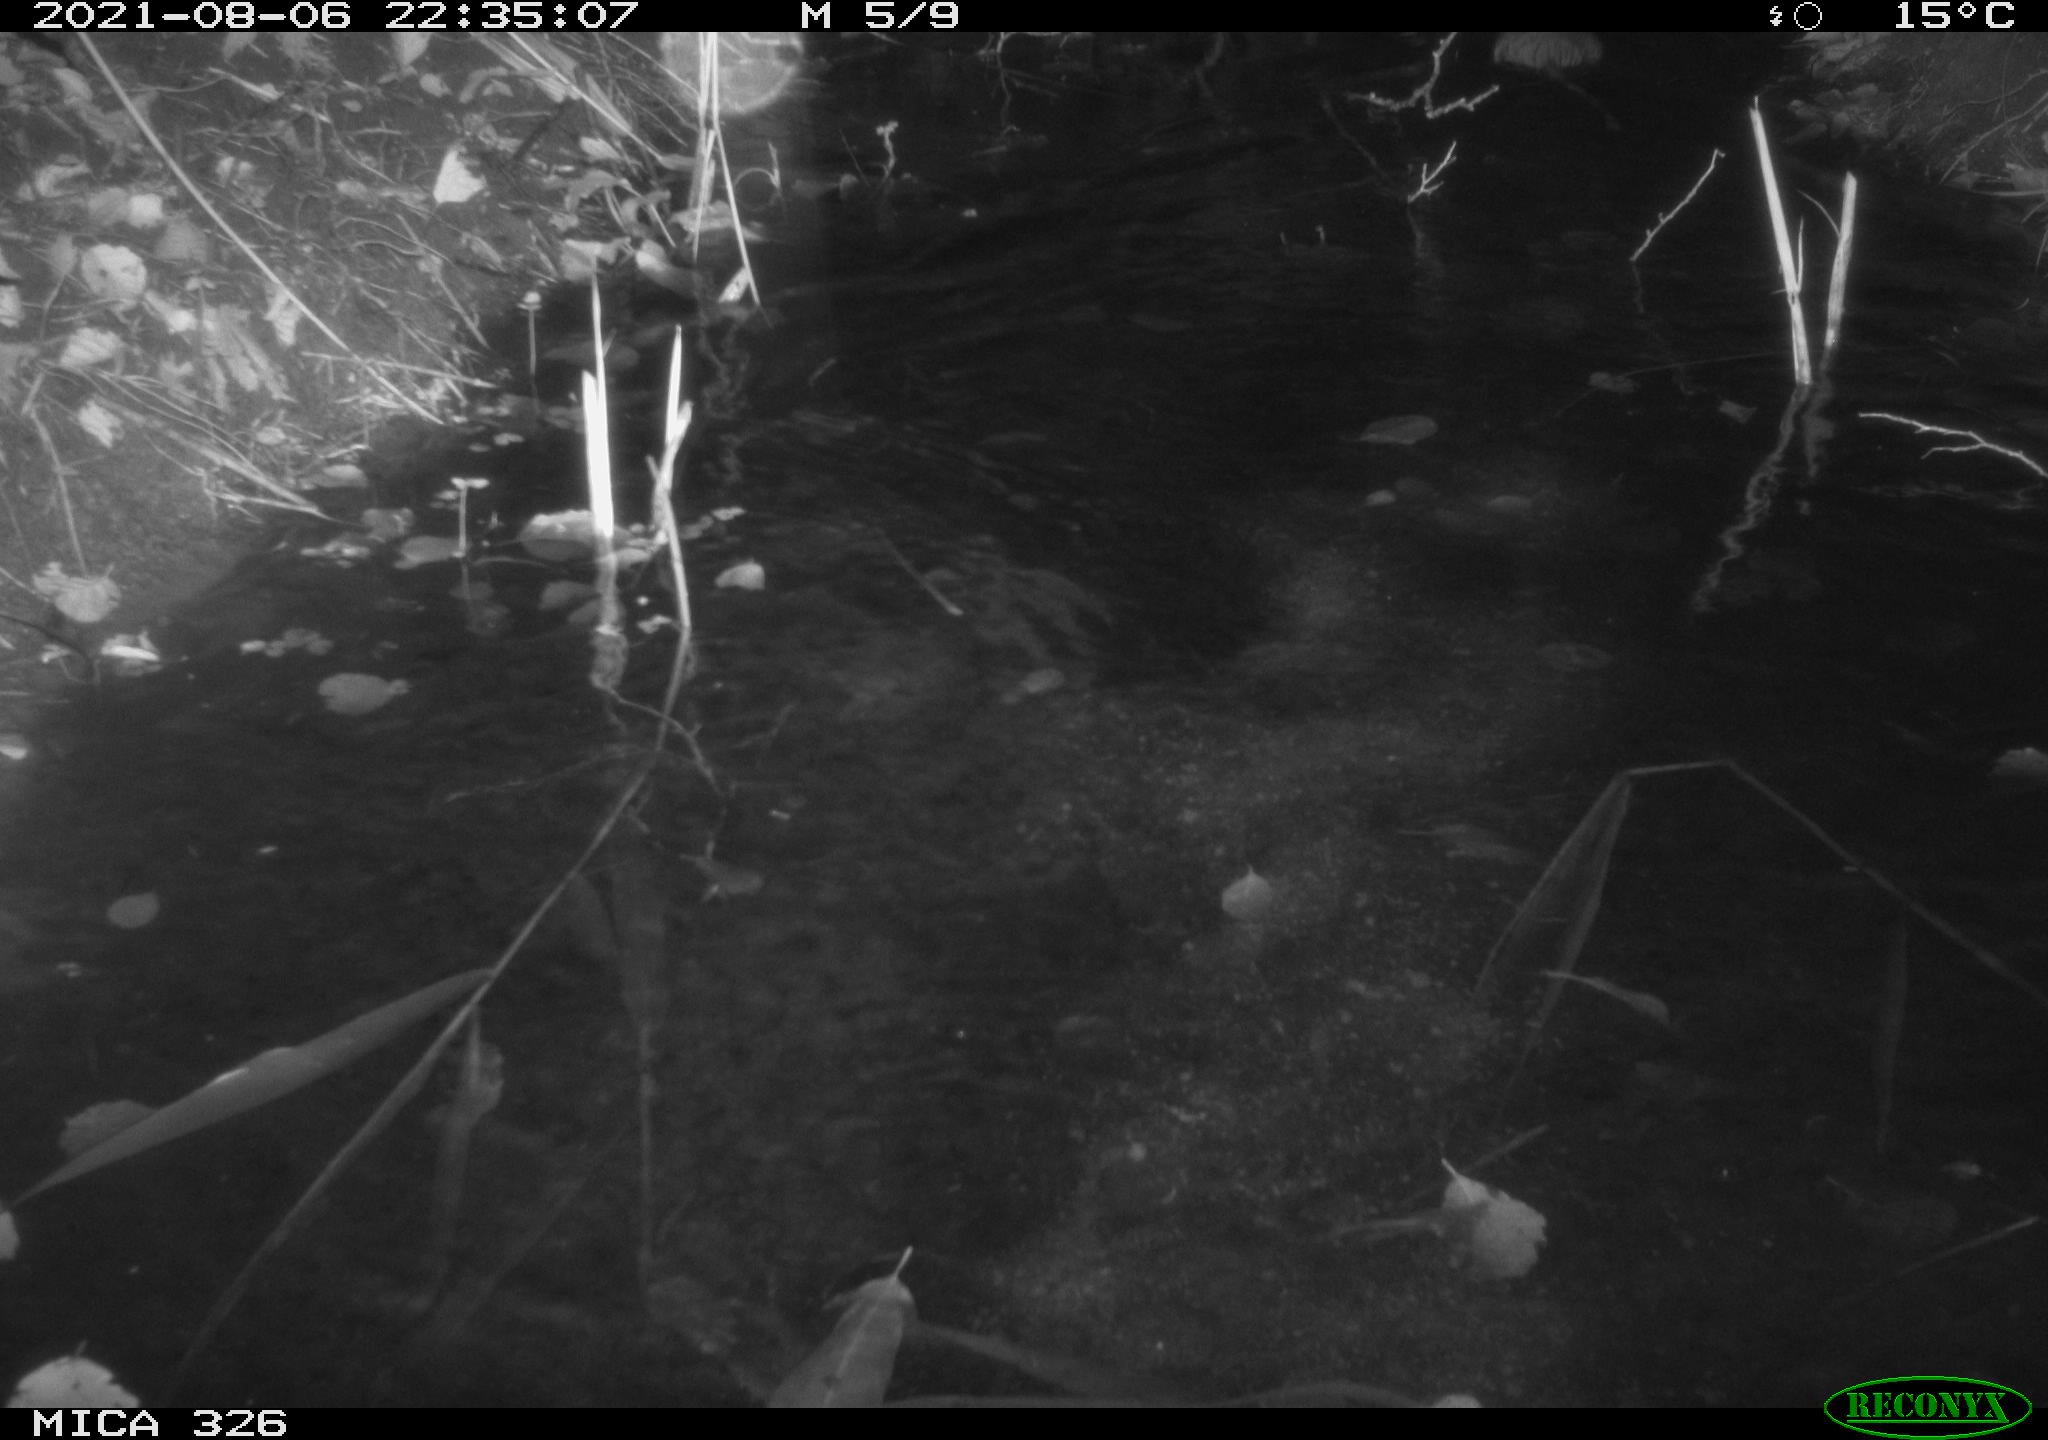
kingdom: Animalia
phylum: Chordata
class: Mammalia
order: Rodentia
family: Cricetidae
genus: Ondatra
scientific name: Ondatra zibethicus
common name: Muskrat
